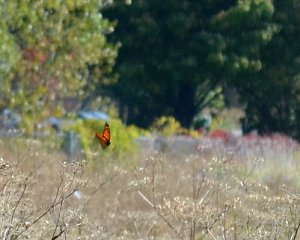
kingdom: Animalia
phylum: Arthropoda
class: Insecta
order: Lepidoptera
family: Nymphalidae
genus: Danaus
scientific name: Danaus plexippus
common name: Monarch
